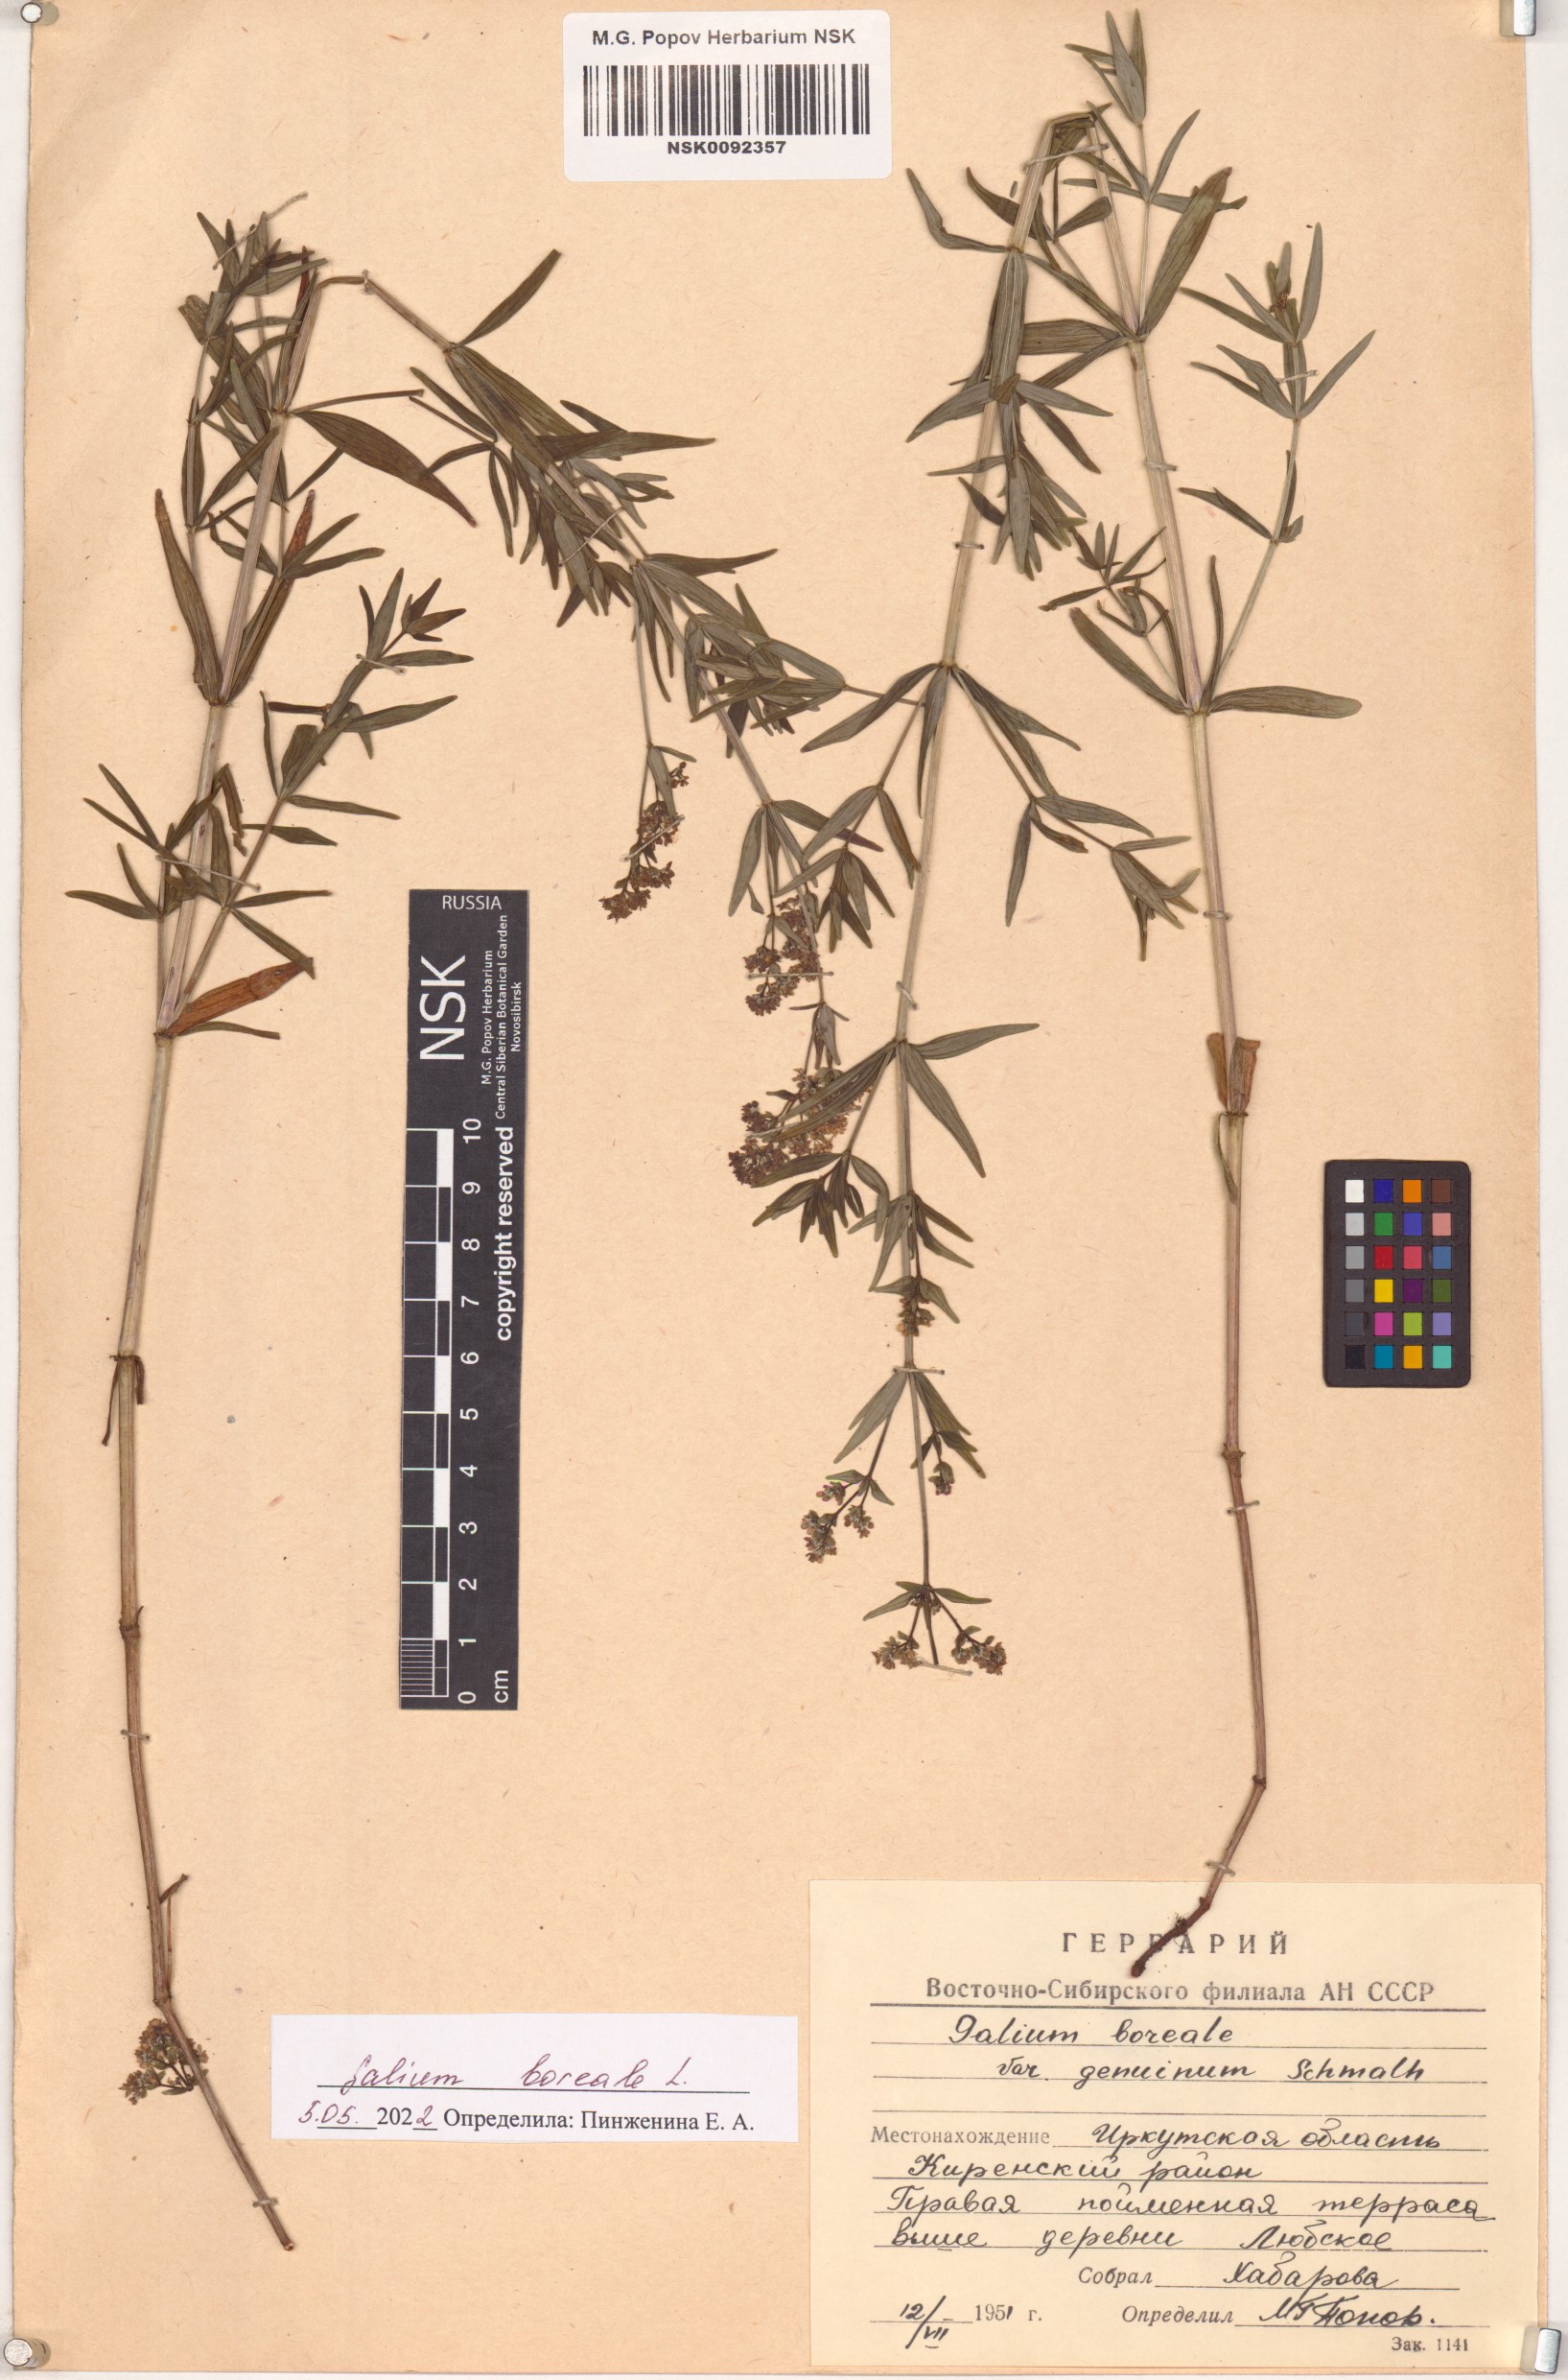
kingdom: Plantae
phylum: Tracheophyta
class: Magnoliopsida
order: Gentianales
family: Rubiaceae
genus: Galium
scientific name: Galium boreale
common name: Northern bedstraw
